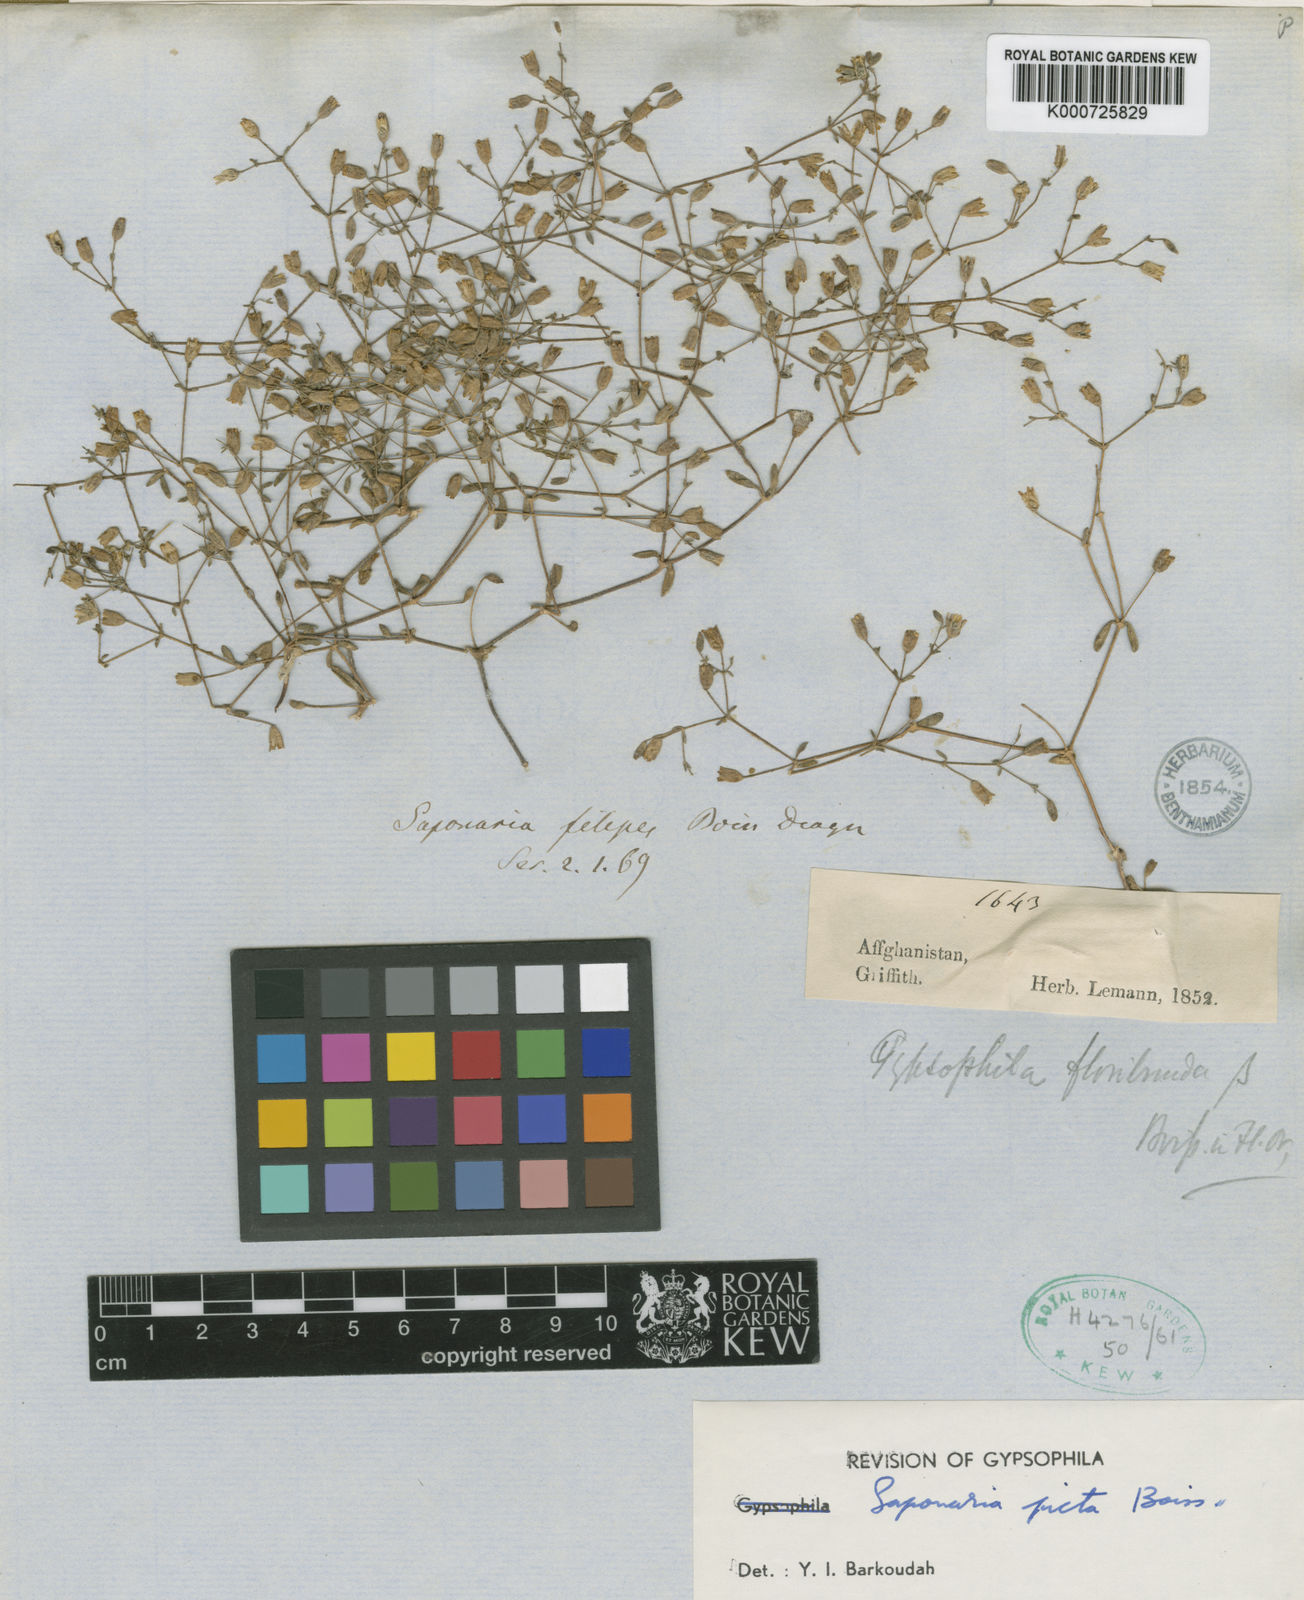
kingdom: Plantae
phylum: Tracheophyta
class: Magnoliopsida
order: Caryophyllales
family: Caryophyllaceae
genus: Psammophiliella
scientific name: Psammophiliella filipes
